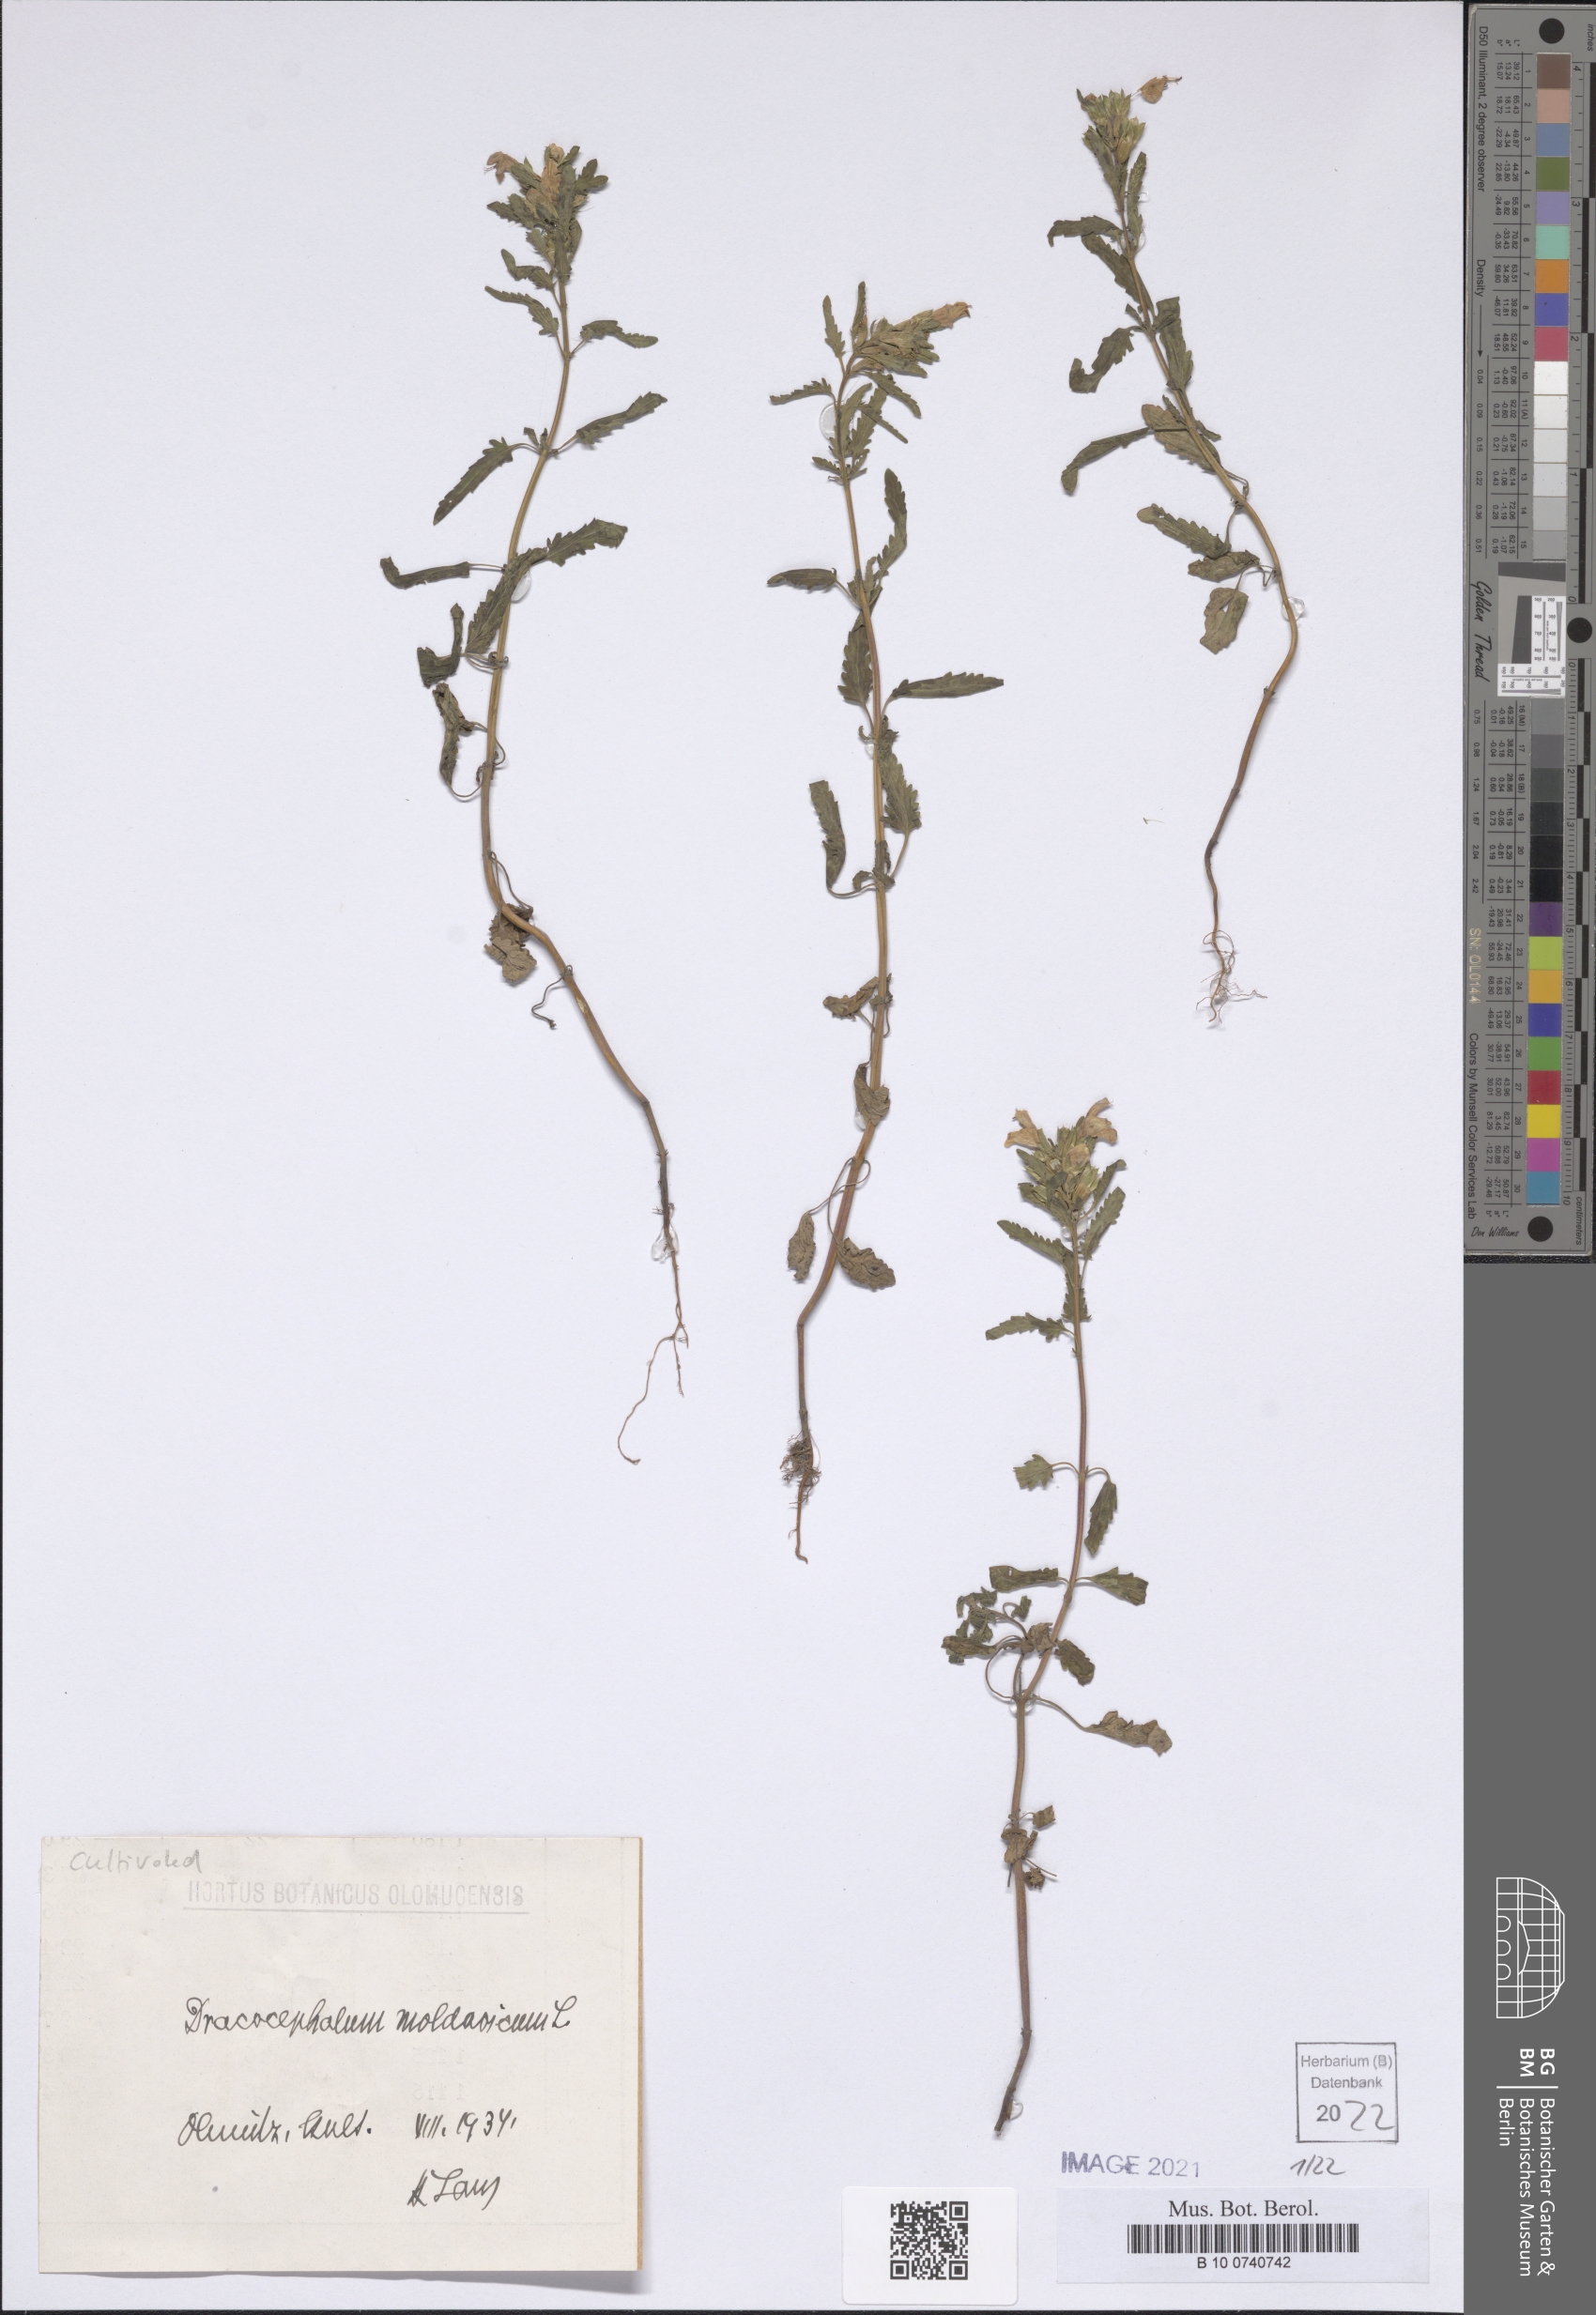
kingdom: Plantae
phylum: Tracheophyta
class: Magnoliopsida
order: Lamiales
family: Lamiaceae
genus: Dracocephalum
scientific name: Dracocephalum moldavica
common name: Moldavian dragonhead
